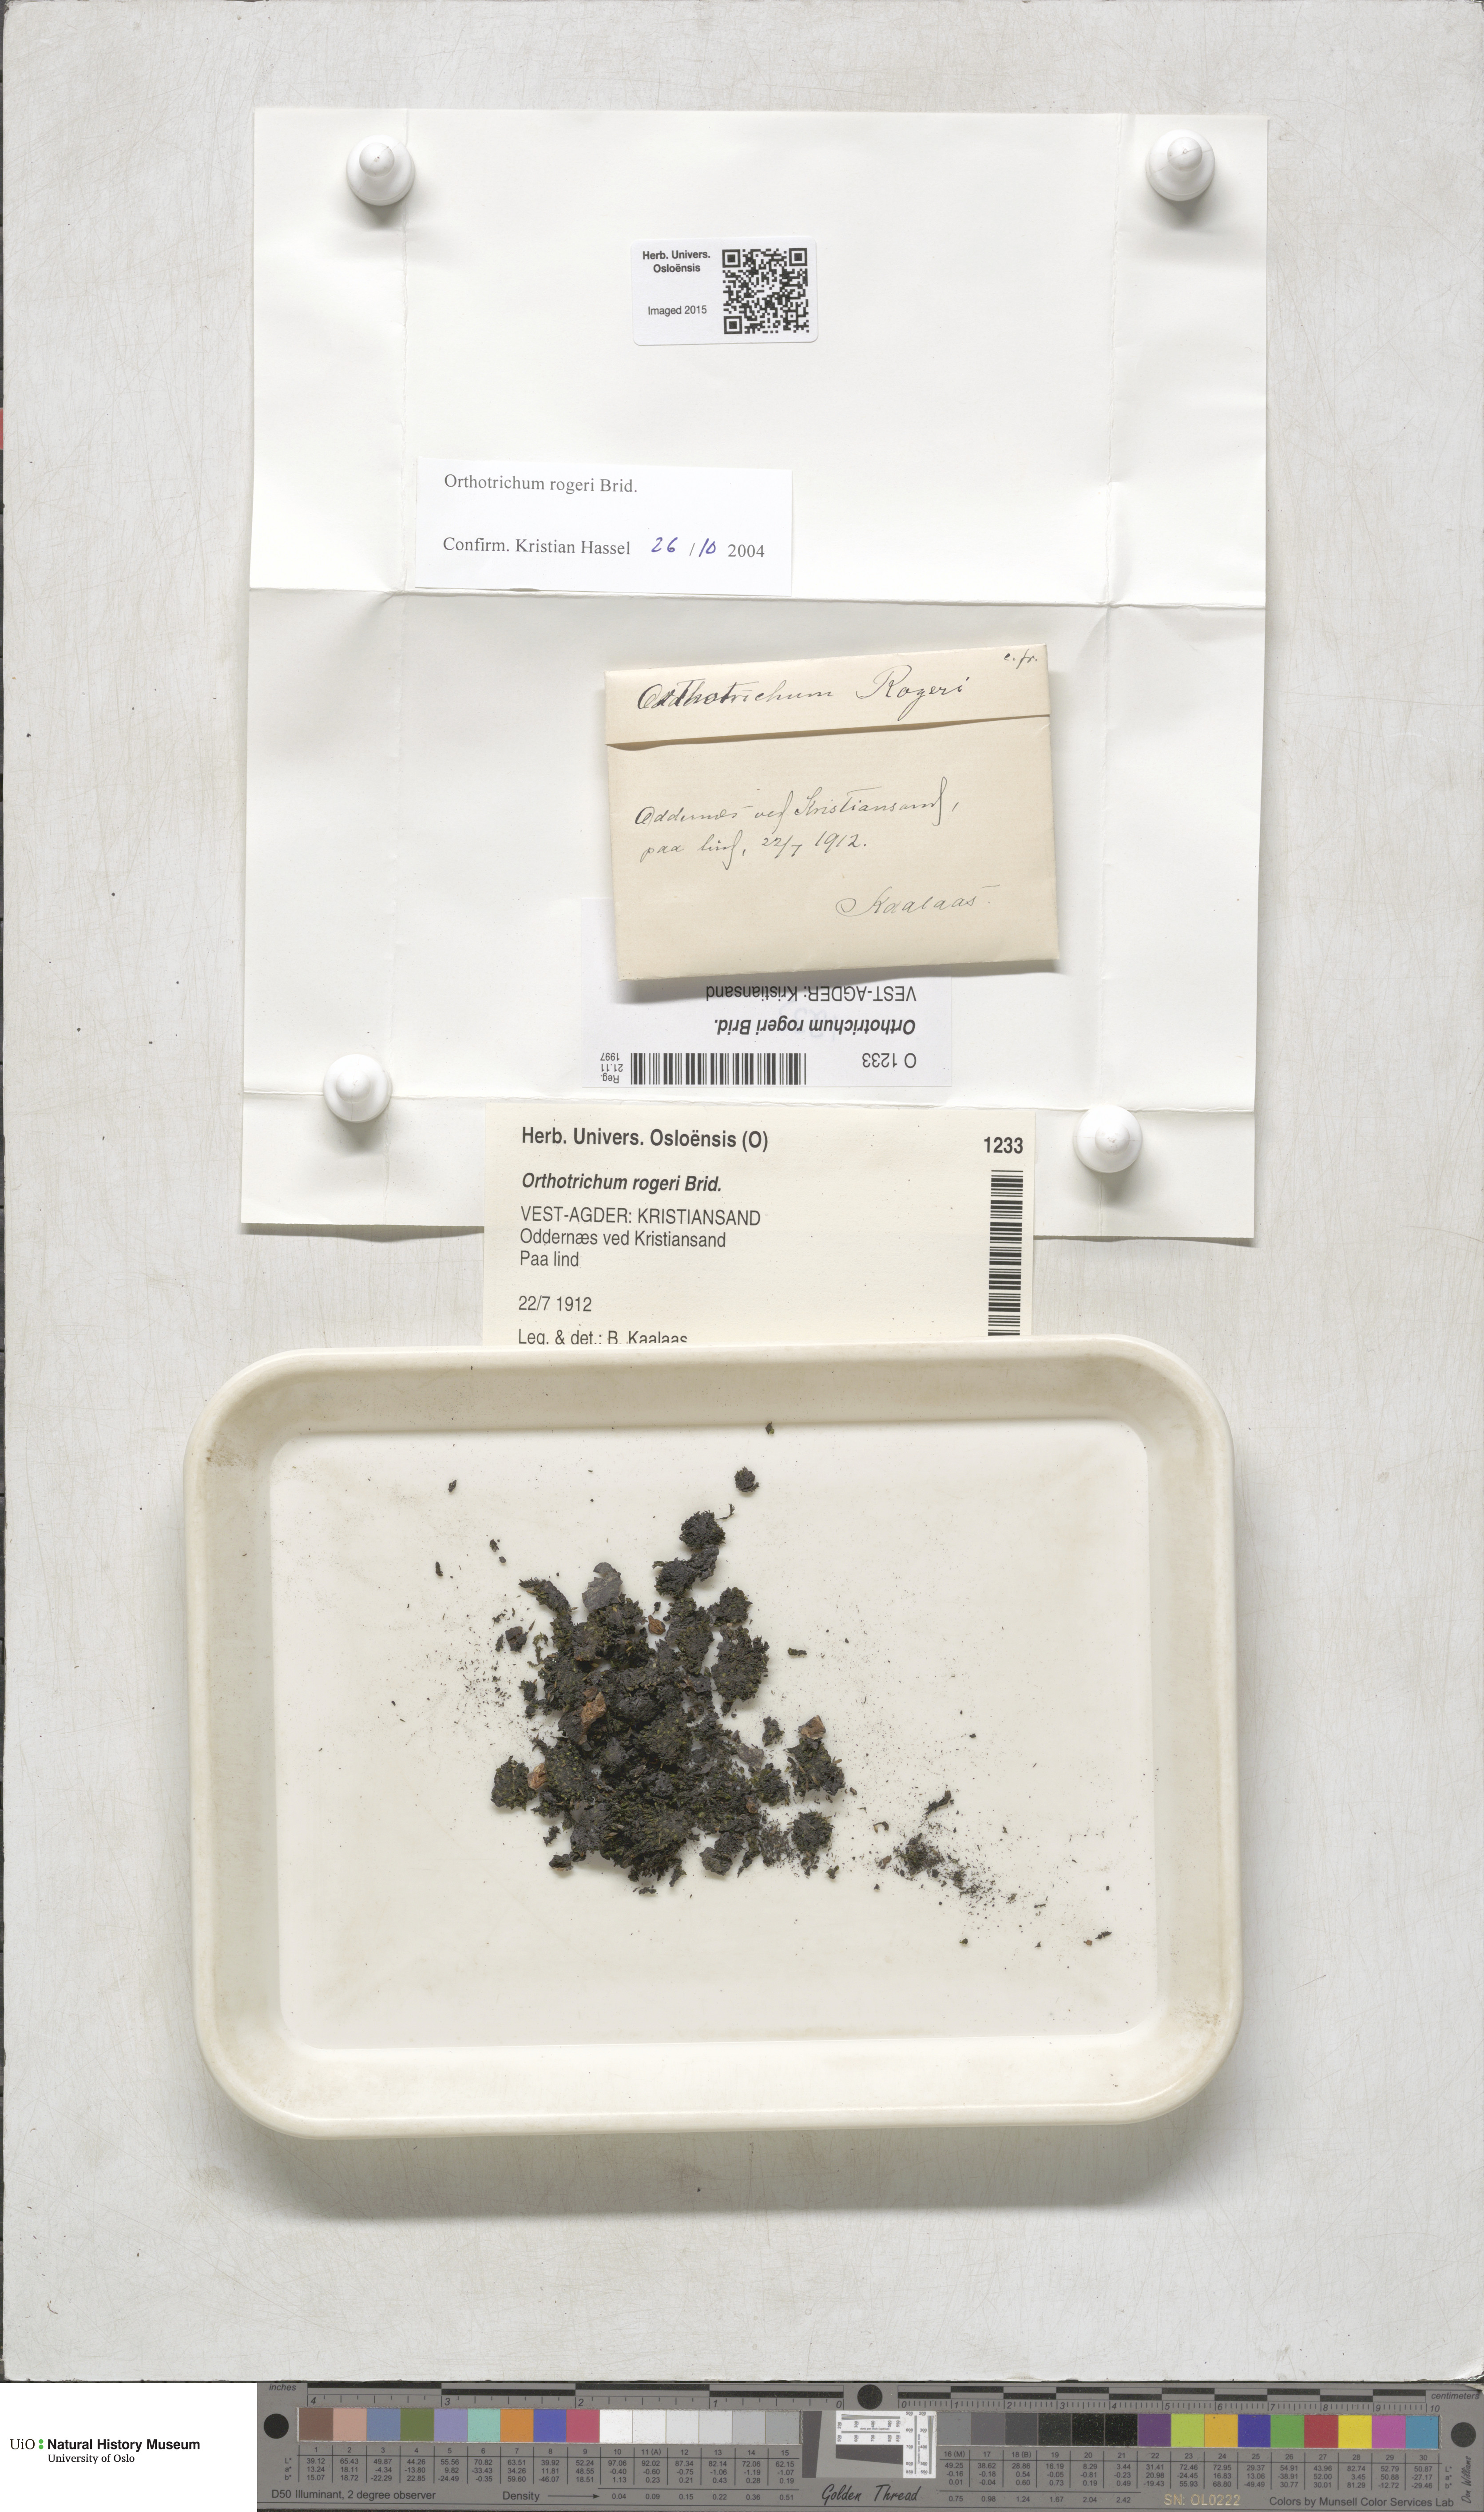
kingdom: Plantae
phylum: Bryophyta
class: Bryopsida
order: Orthotrichales
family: Orthotrichaceae
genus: Orthotrichum
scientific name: Orthotrichum rogeri
